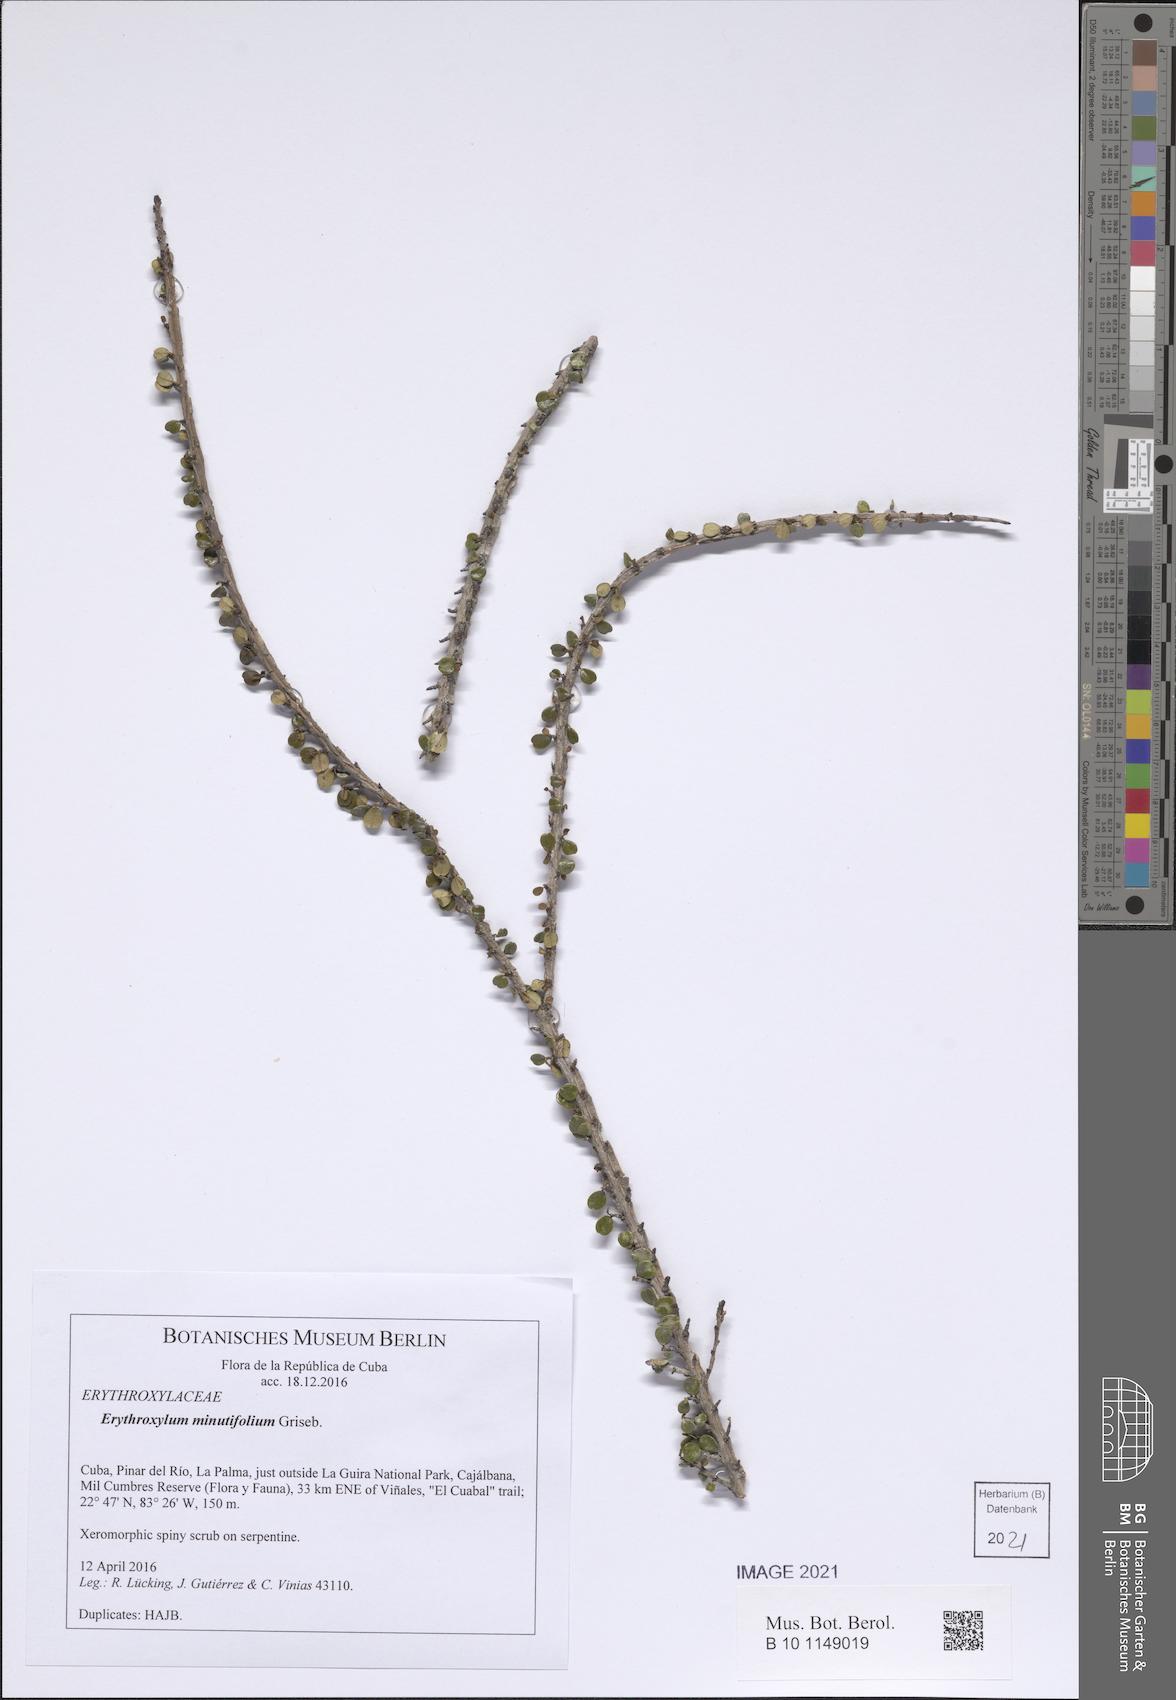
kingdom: Plantae
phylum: Tracheophyta
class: Magnoliopsida
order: Malpighiales
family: Erythroxylaceae
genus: Erythroxylum
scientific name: Erythroxylum minutifolium
